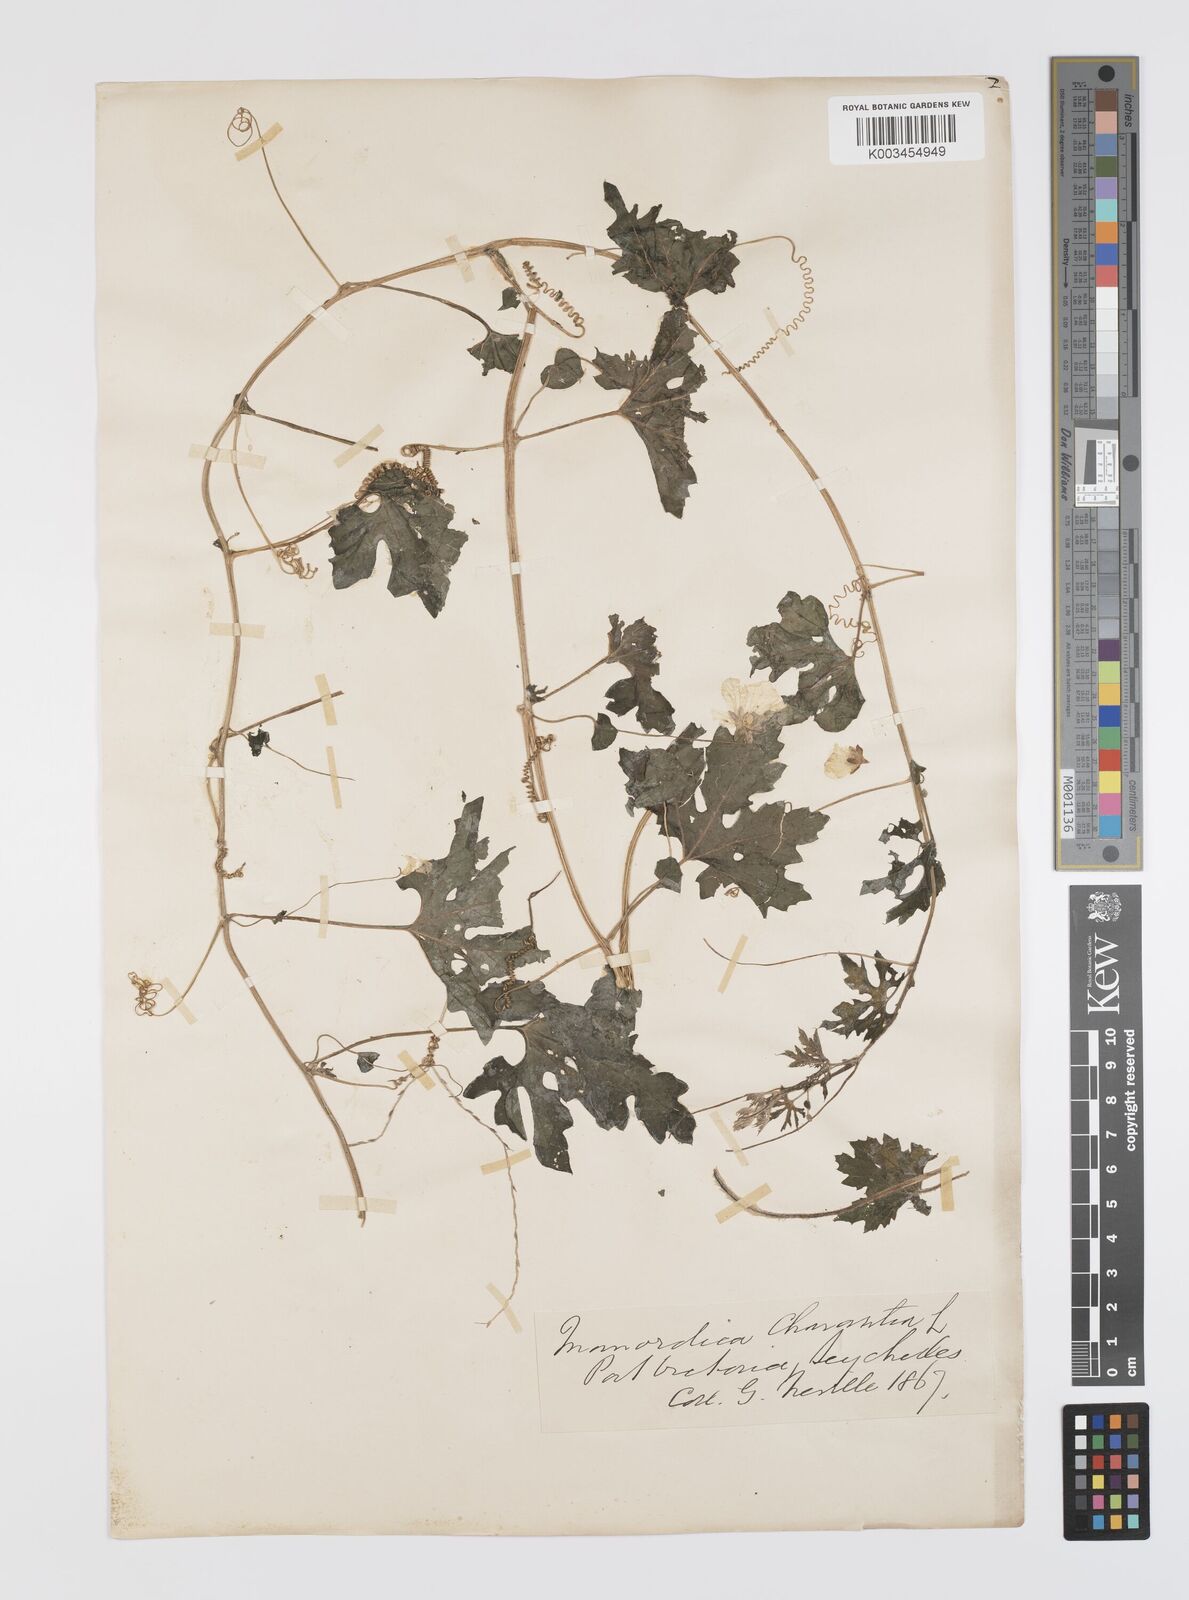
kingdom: Plantae
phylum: Tracheophyta
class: Magnoliopsida
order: Cucurbitales
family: Cucurbitaceae
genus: Momordica
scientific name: Momordica charantia
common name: Balsampear
